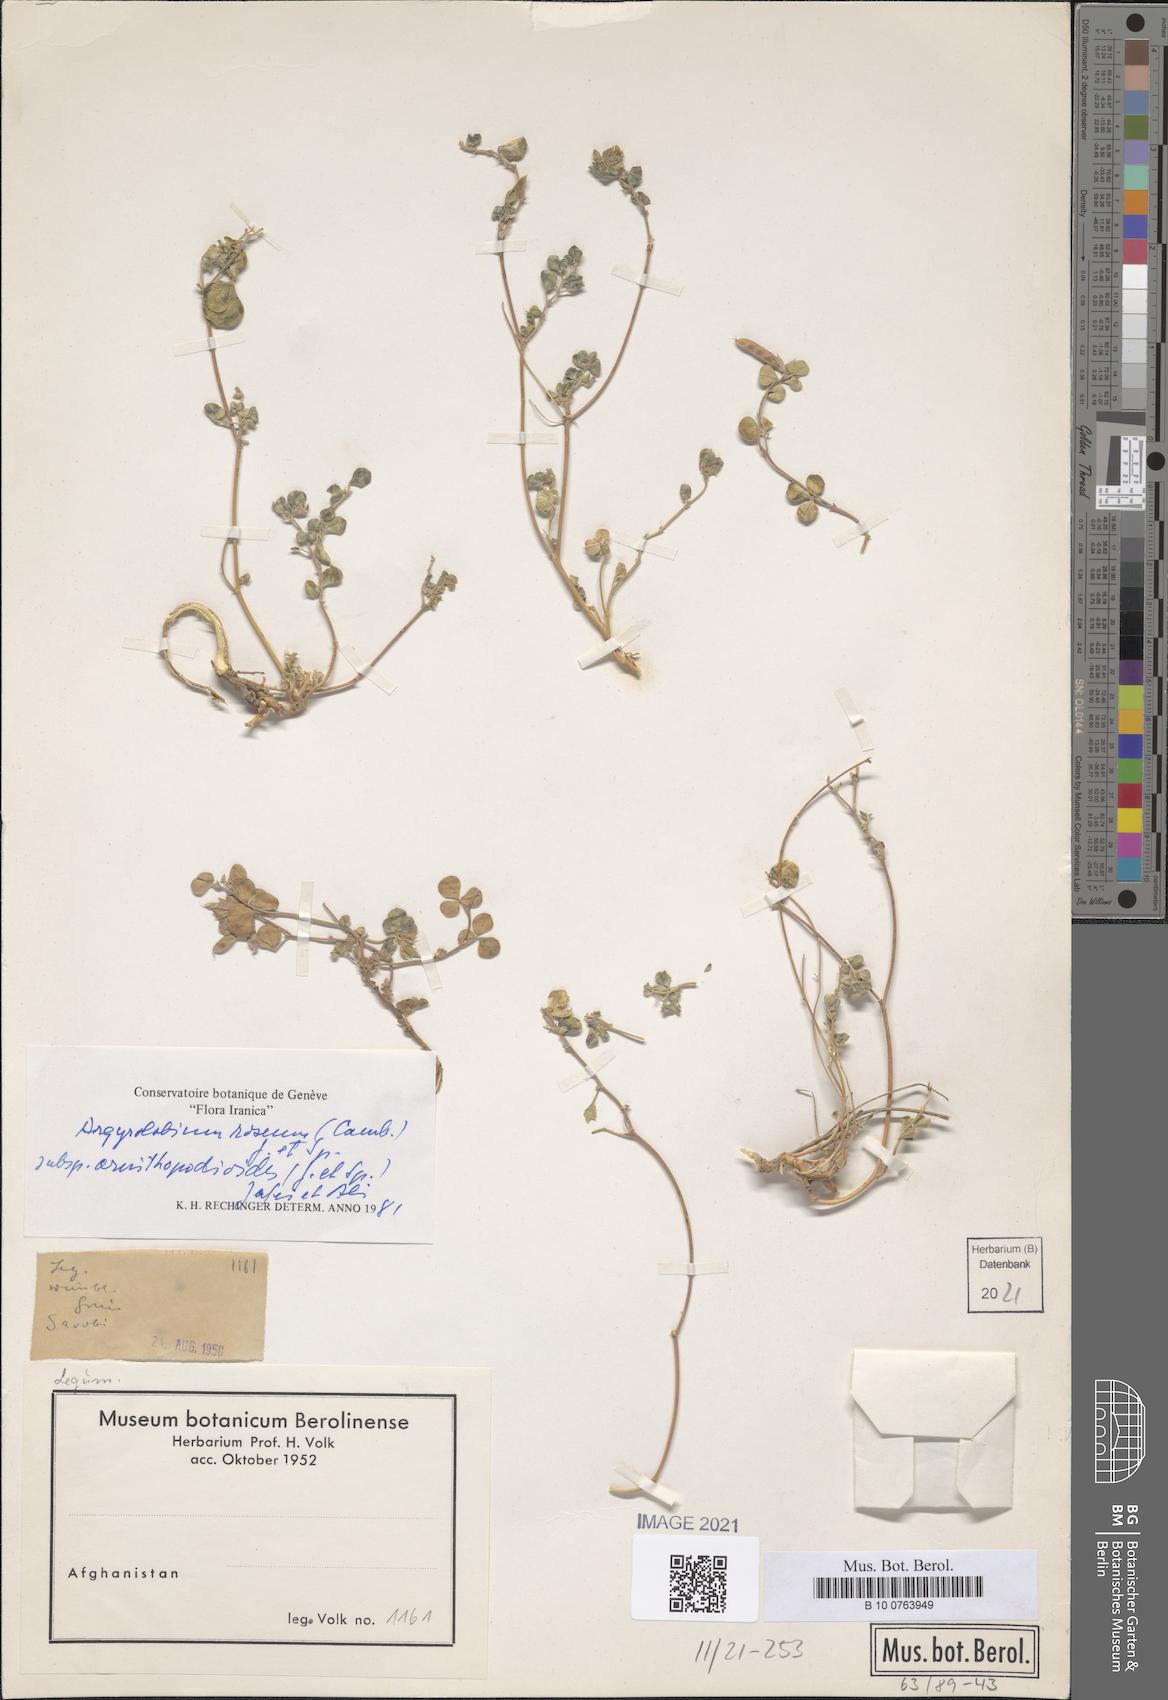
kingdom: Plantae
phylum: Tracheophyta
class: Magnoliopsida
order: Fabales
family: Fabaceae
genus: Argyrolobium
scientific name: Argyrolobium roseum
